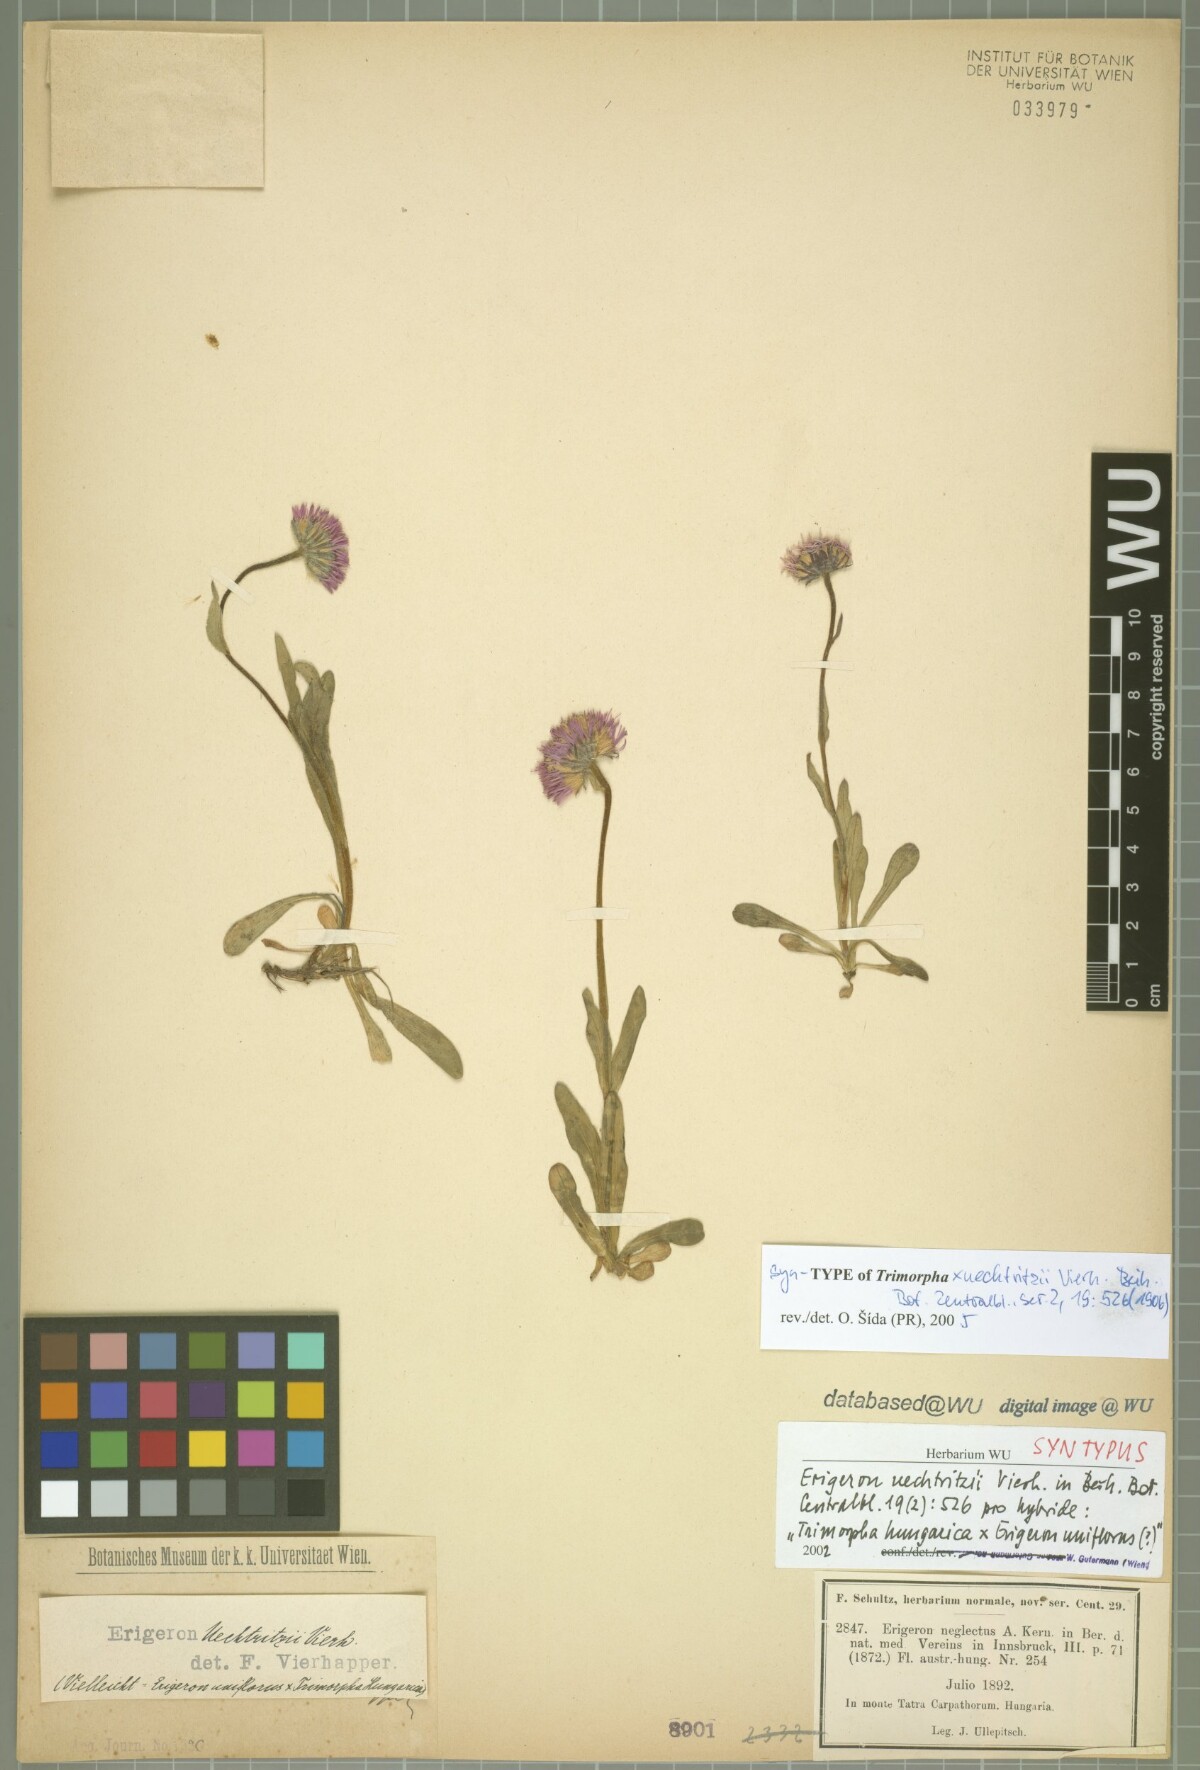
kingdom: Plantae
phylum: Tracheophyta
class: Magnoliopsida
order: Asterales
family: Asteraceae
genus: Erigeron
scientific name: Erigeron
